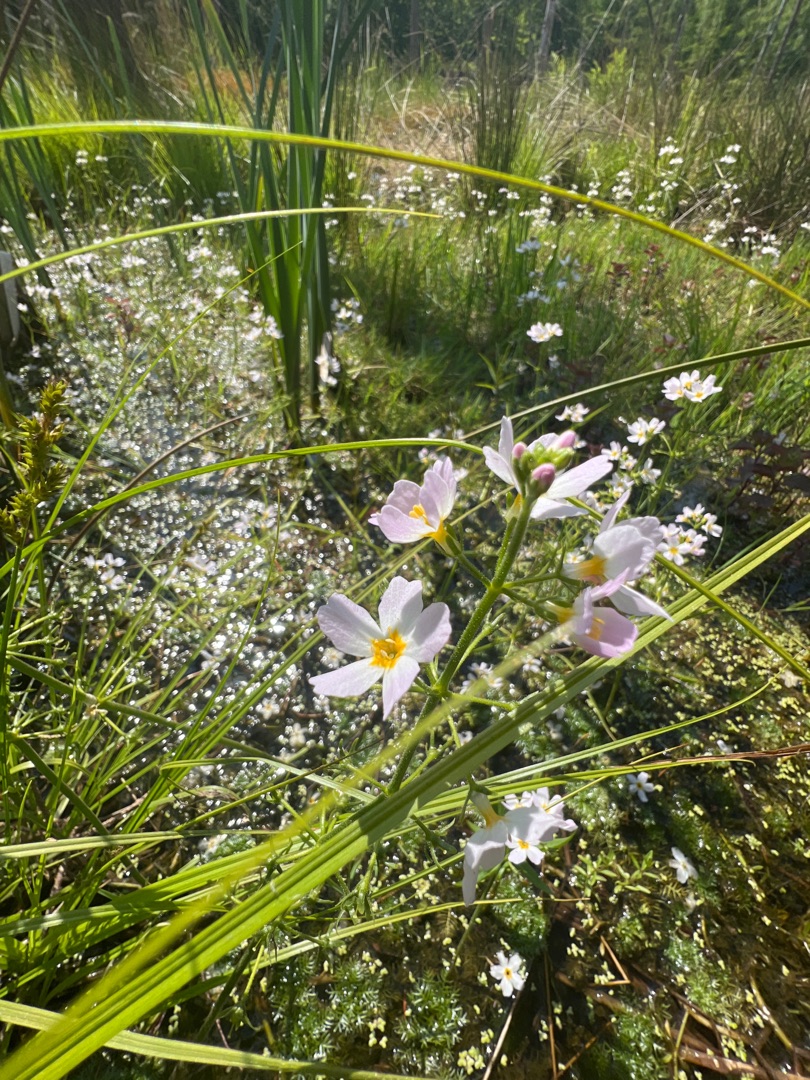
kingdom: Plantae
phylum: Tracheophyta
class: Magnoliopsida
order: Ericales
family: Primulaceae
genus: Hottonia
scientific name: Hottonia palustris
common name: Vandrøllike
